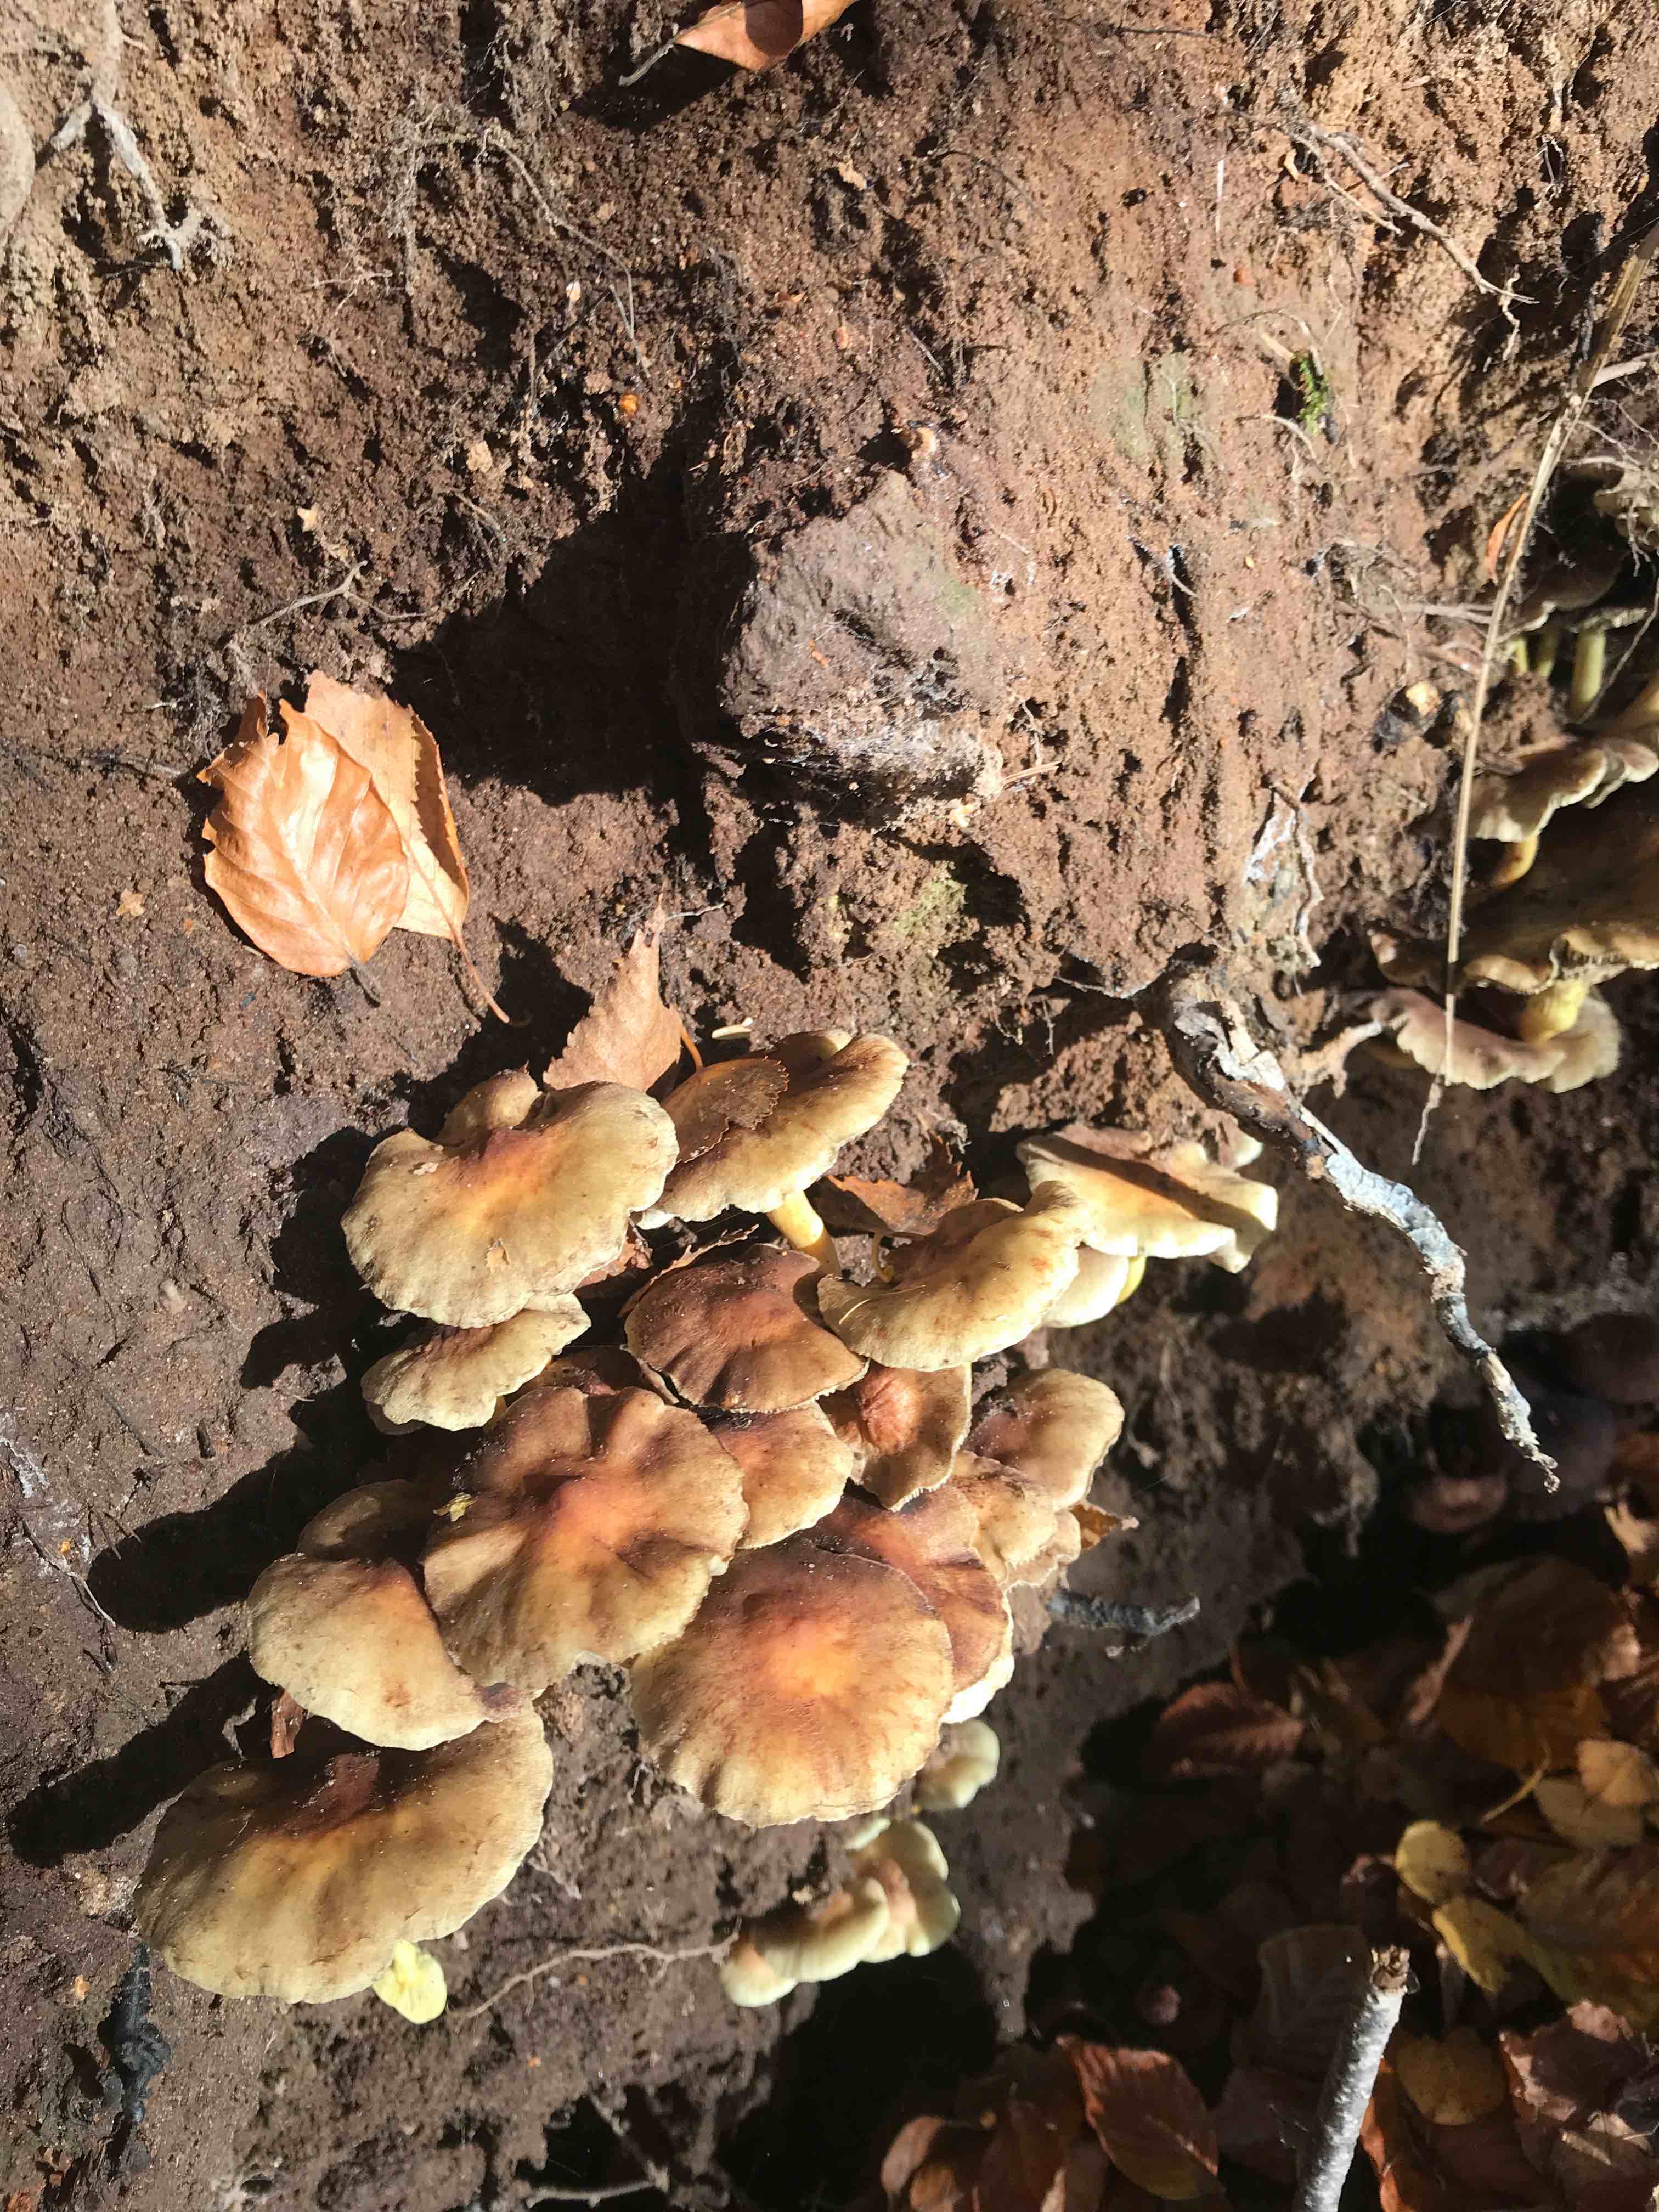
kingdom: Fungi
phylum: Basidiomycota
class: Agaricomycetes
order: Agaricales
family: Strophariaceae
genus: Hypholoma
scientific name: Hypholoma fasciculare
